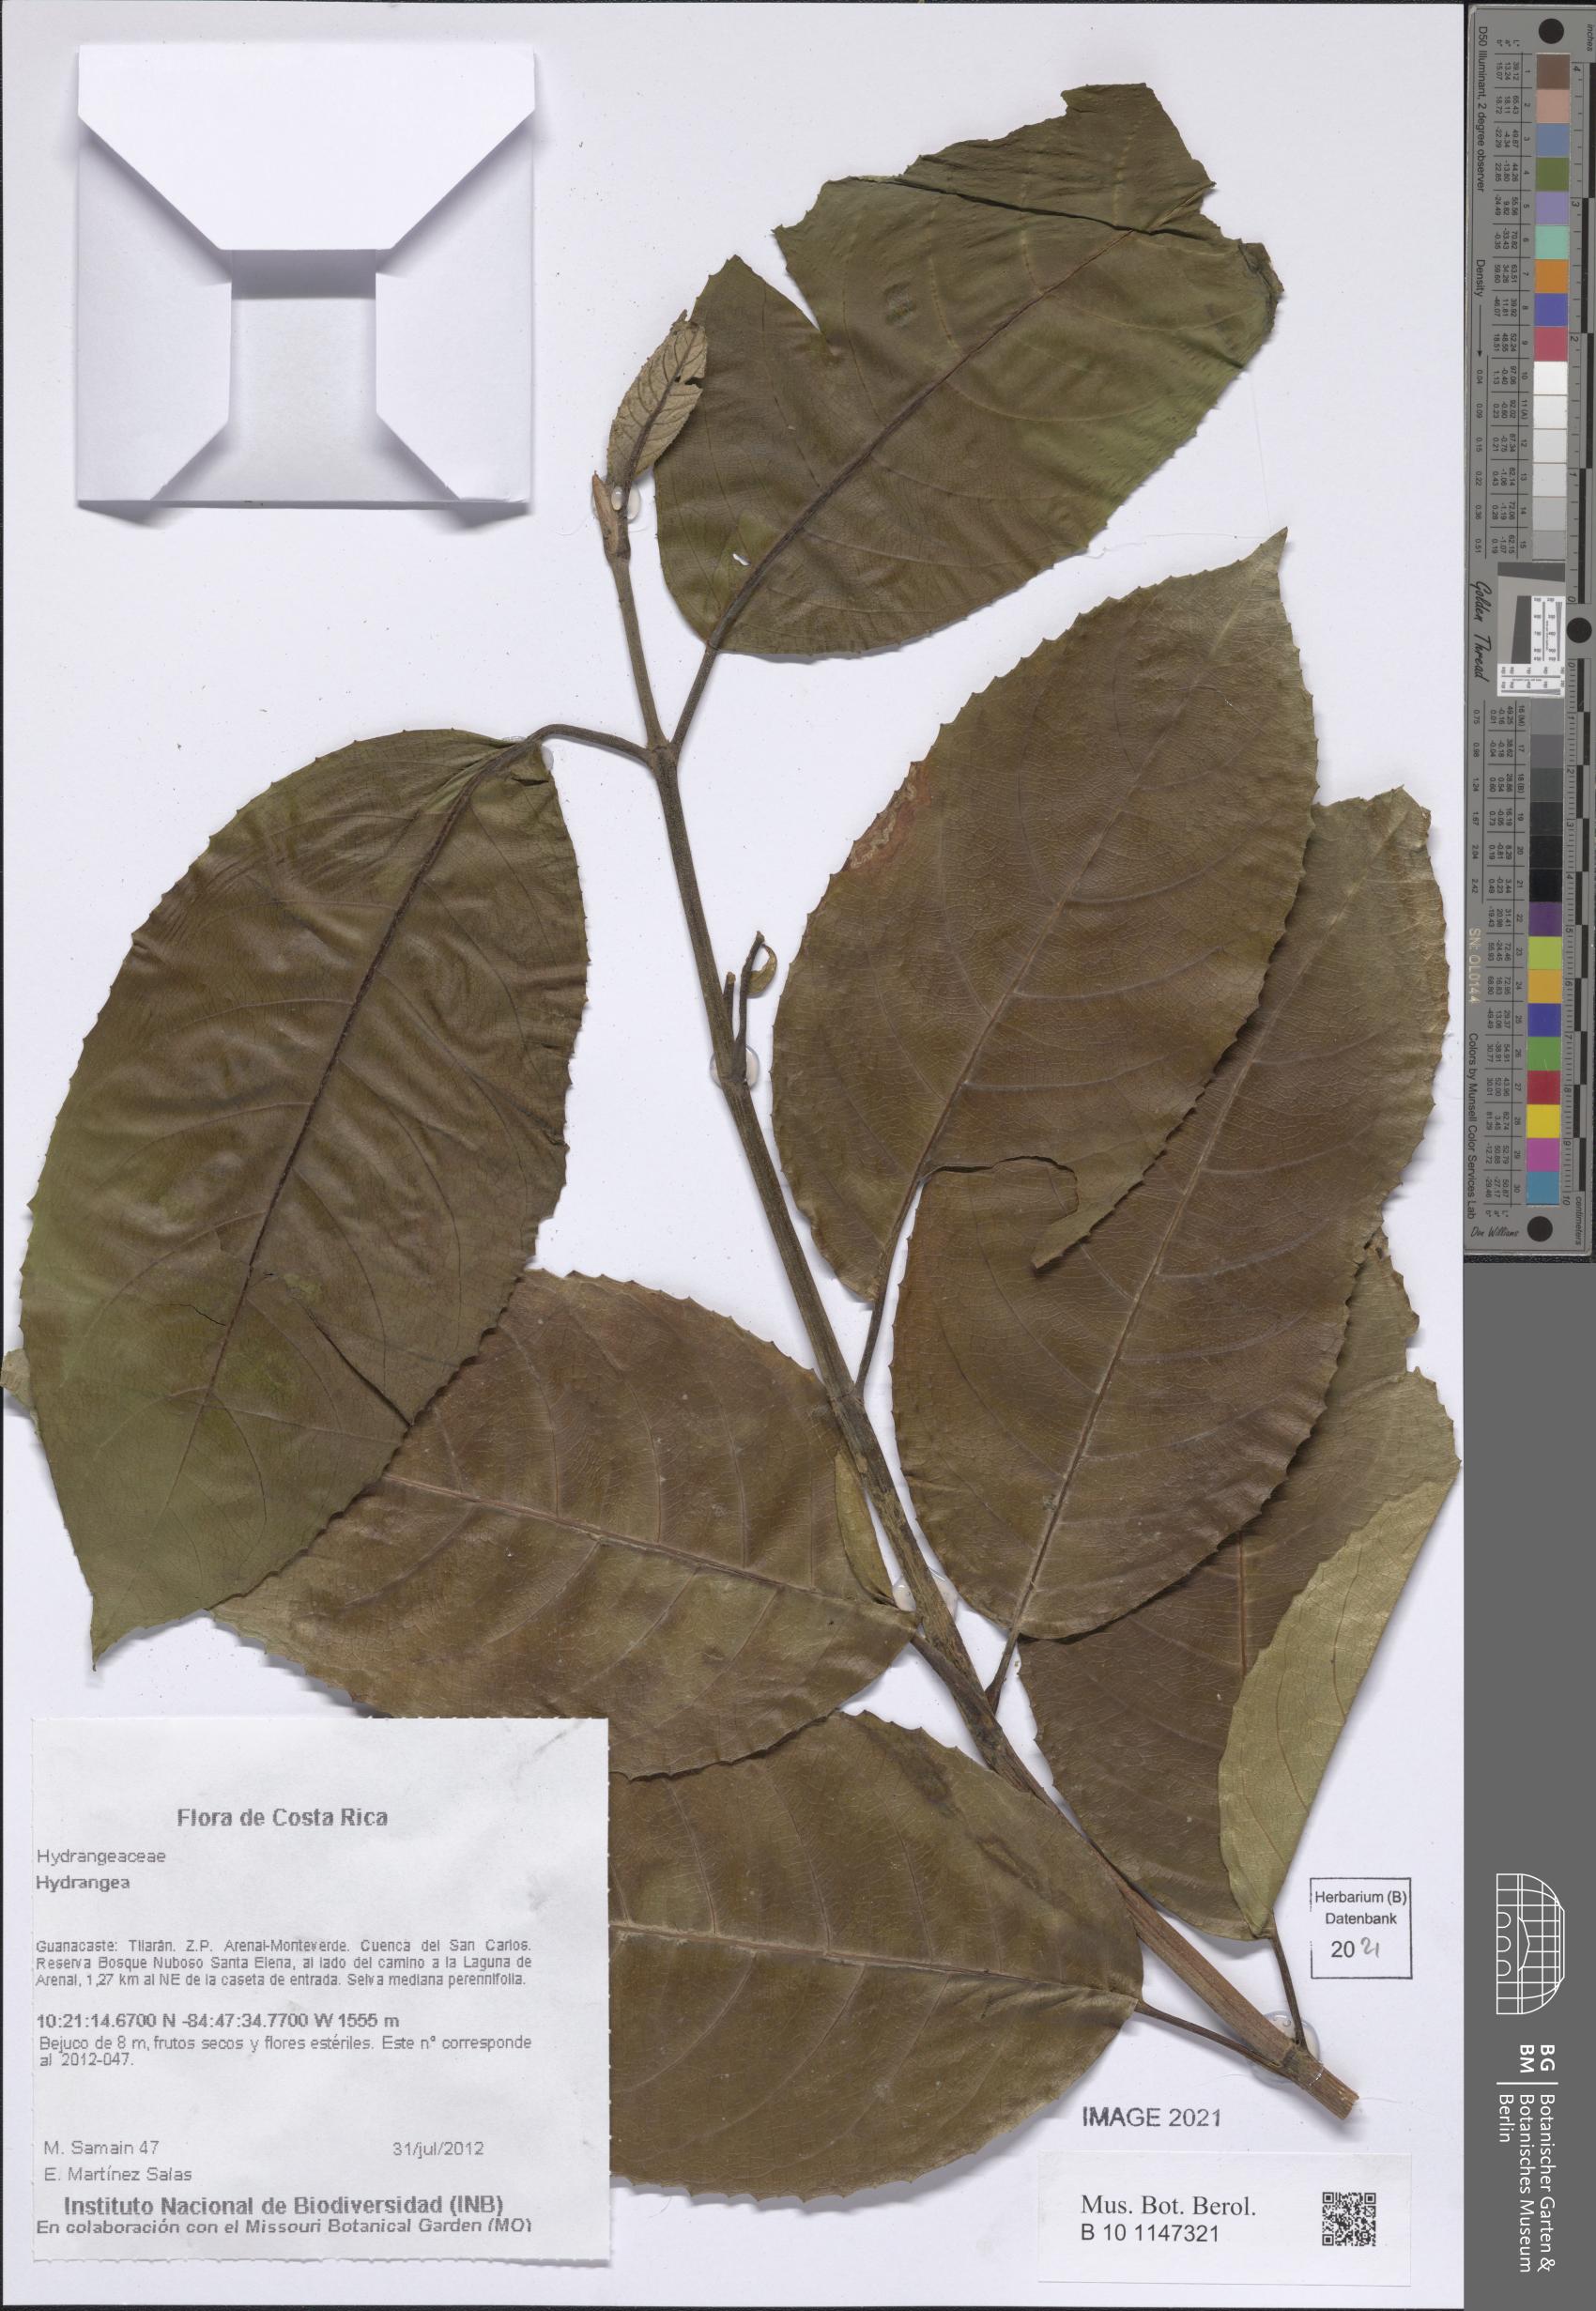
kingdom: Plantae
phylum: Tracheophyta
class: Magnoliopsida
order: Cornales
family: Hydrangeaceae
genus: Hydrangea
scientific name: Hydrangea
